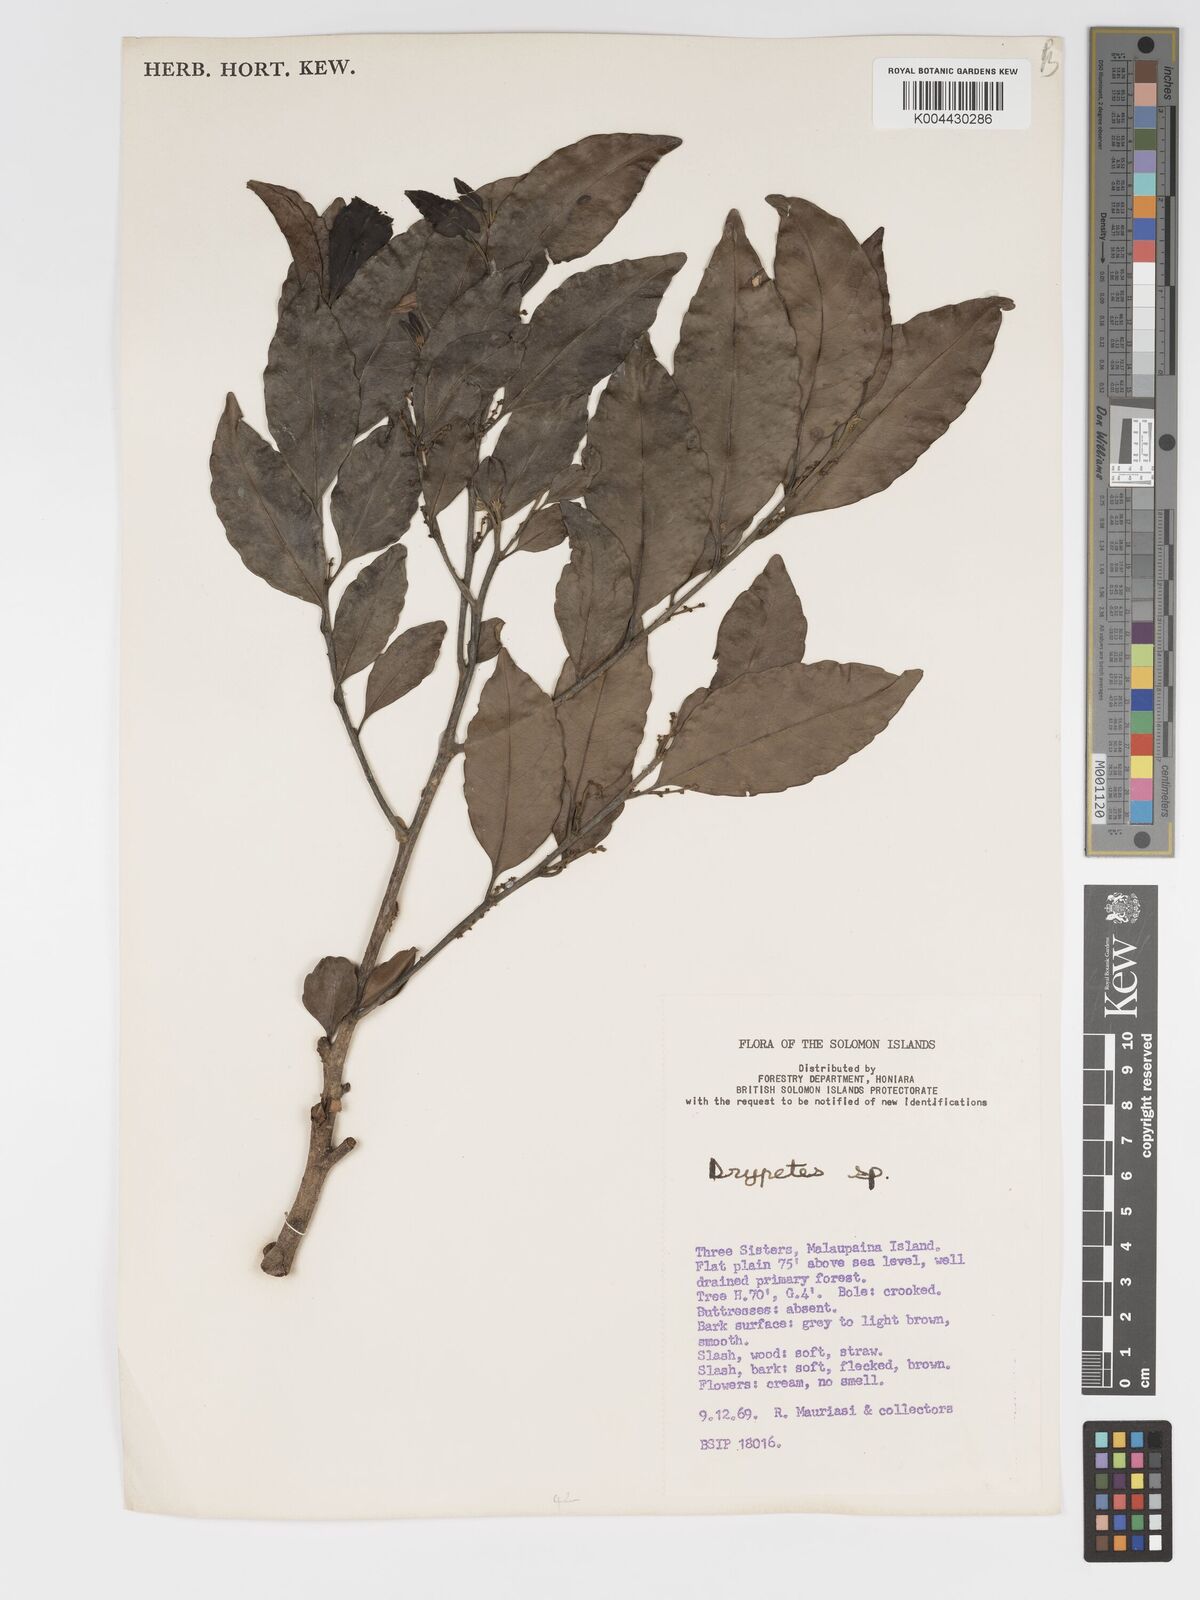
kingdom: Plantae
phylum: Tracheophyta
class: Magnoliopsida
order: Malpighiales
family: Putranjivaceae
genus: Putranjiva
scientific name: Putranjiva roxburghii
